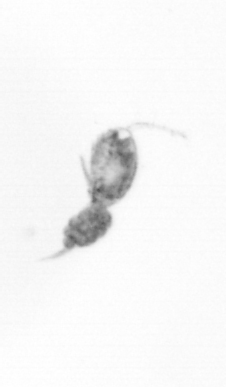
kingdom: Animalia
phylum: Arthropoda
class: Copepoda
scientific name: Copepoda
